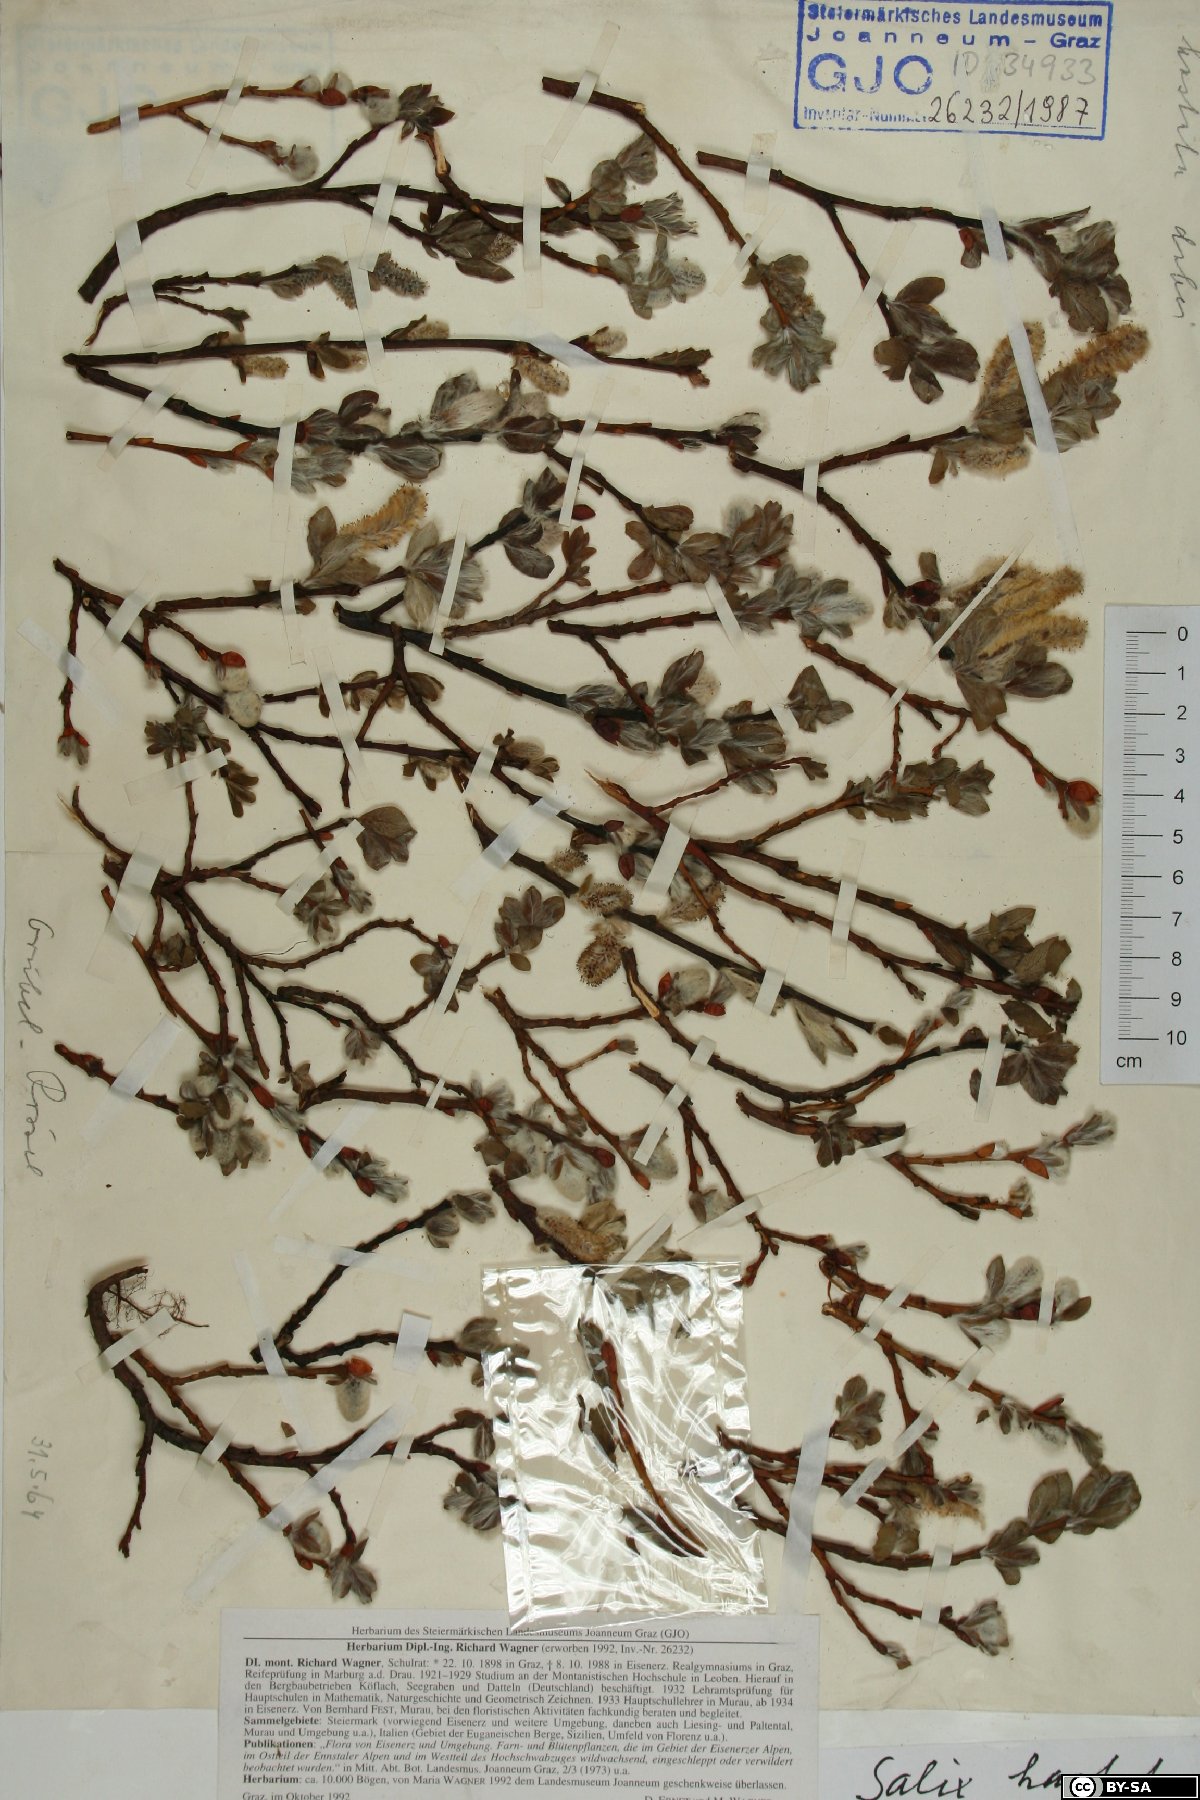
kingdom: Plantae
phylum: Tracheophyta
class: Magnoliopsida
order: Malpighiales
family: Salicaceae
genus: Salix
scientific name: Salix hastata
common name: Halberd willow
